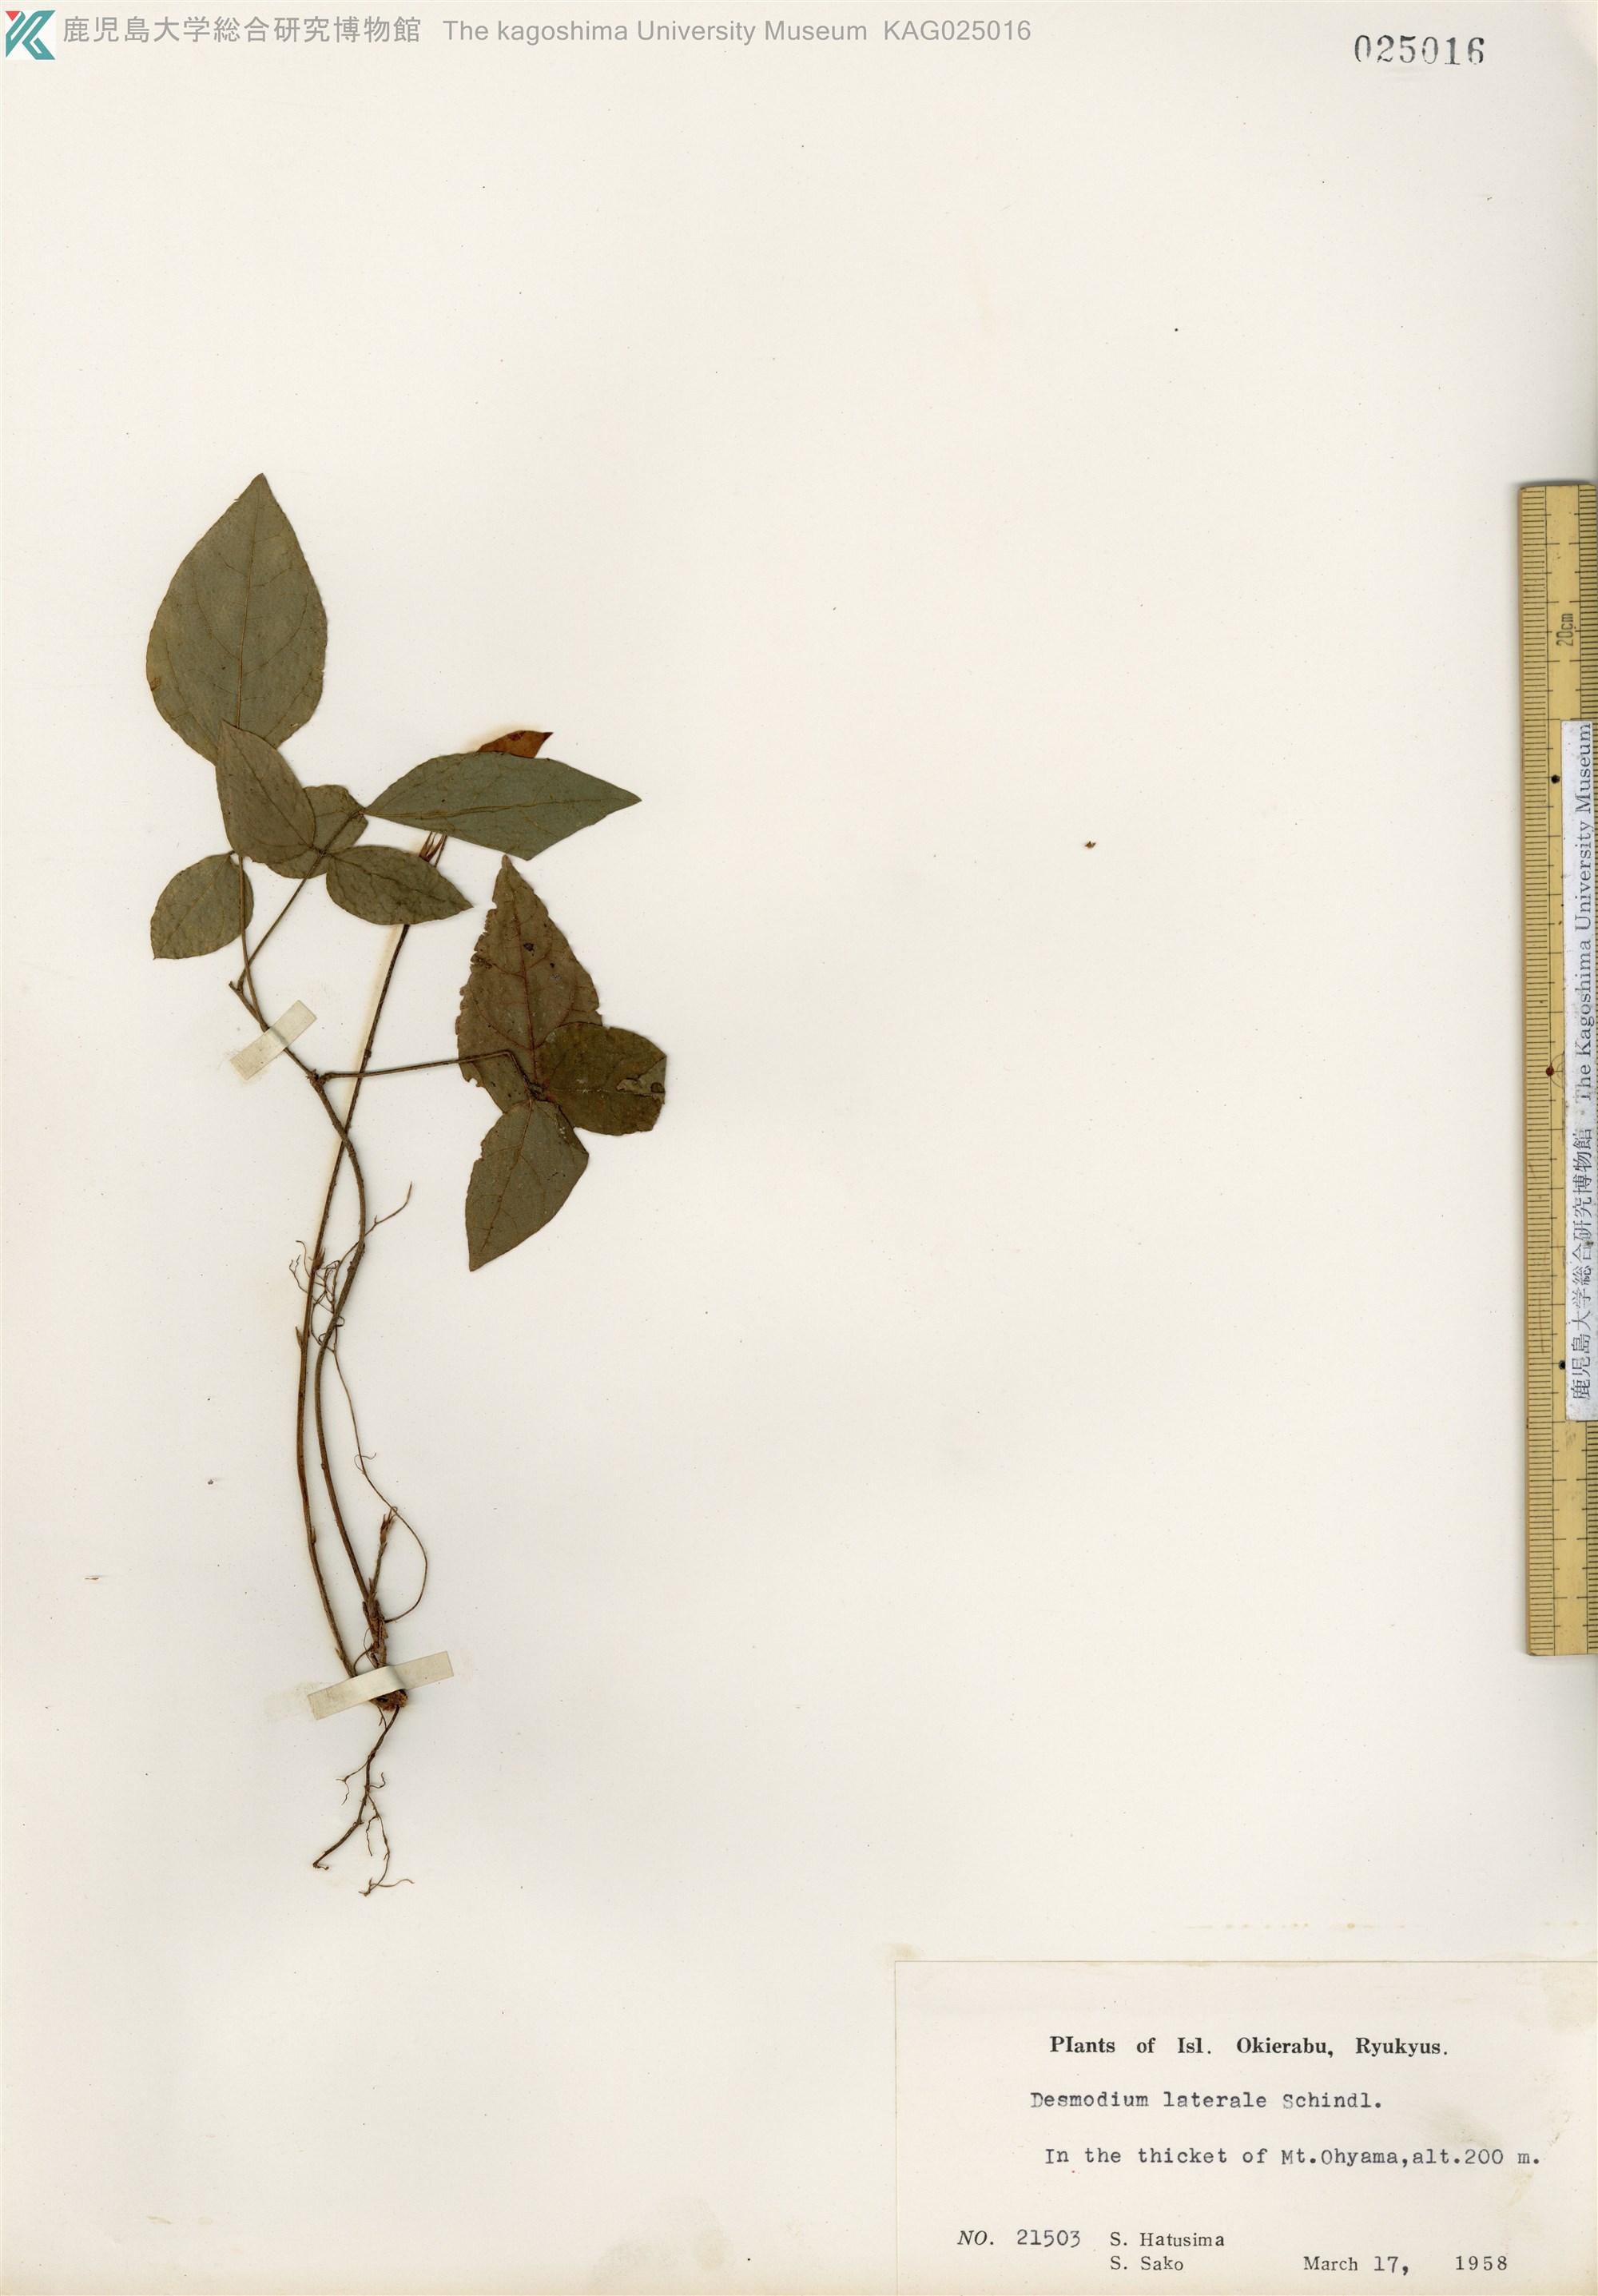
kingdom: Plantae
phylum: Tracheophyta
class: Magnoliopsida
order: Fabales
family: Fabaceae
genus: Hylodesmum
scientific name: Hylodesmum laterale
